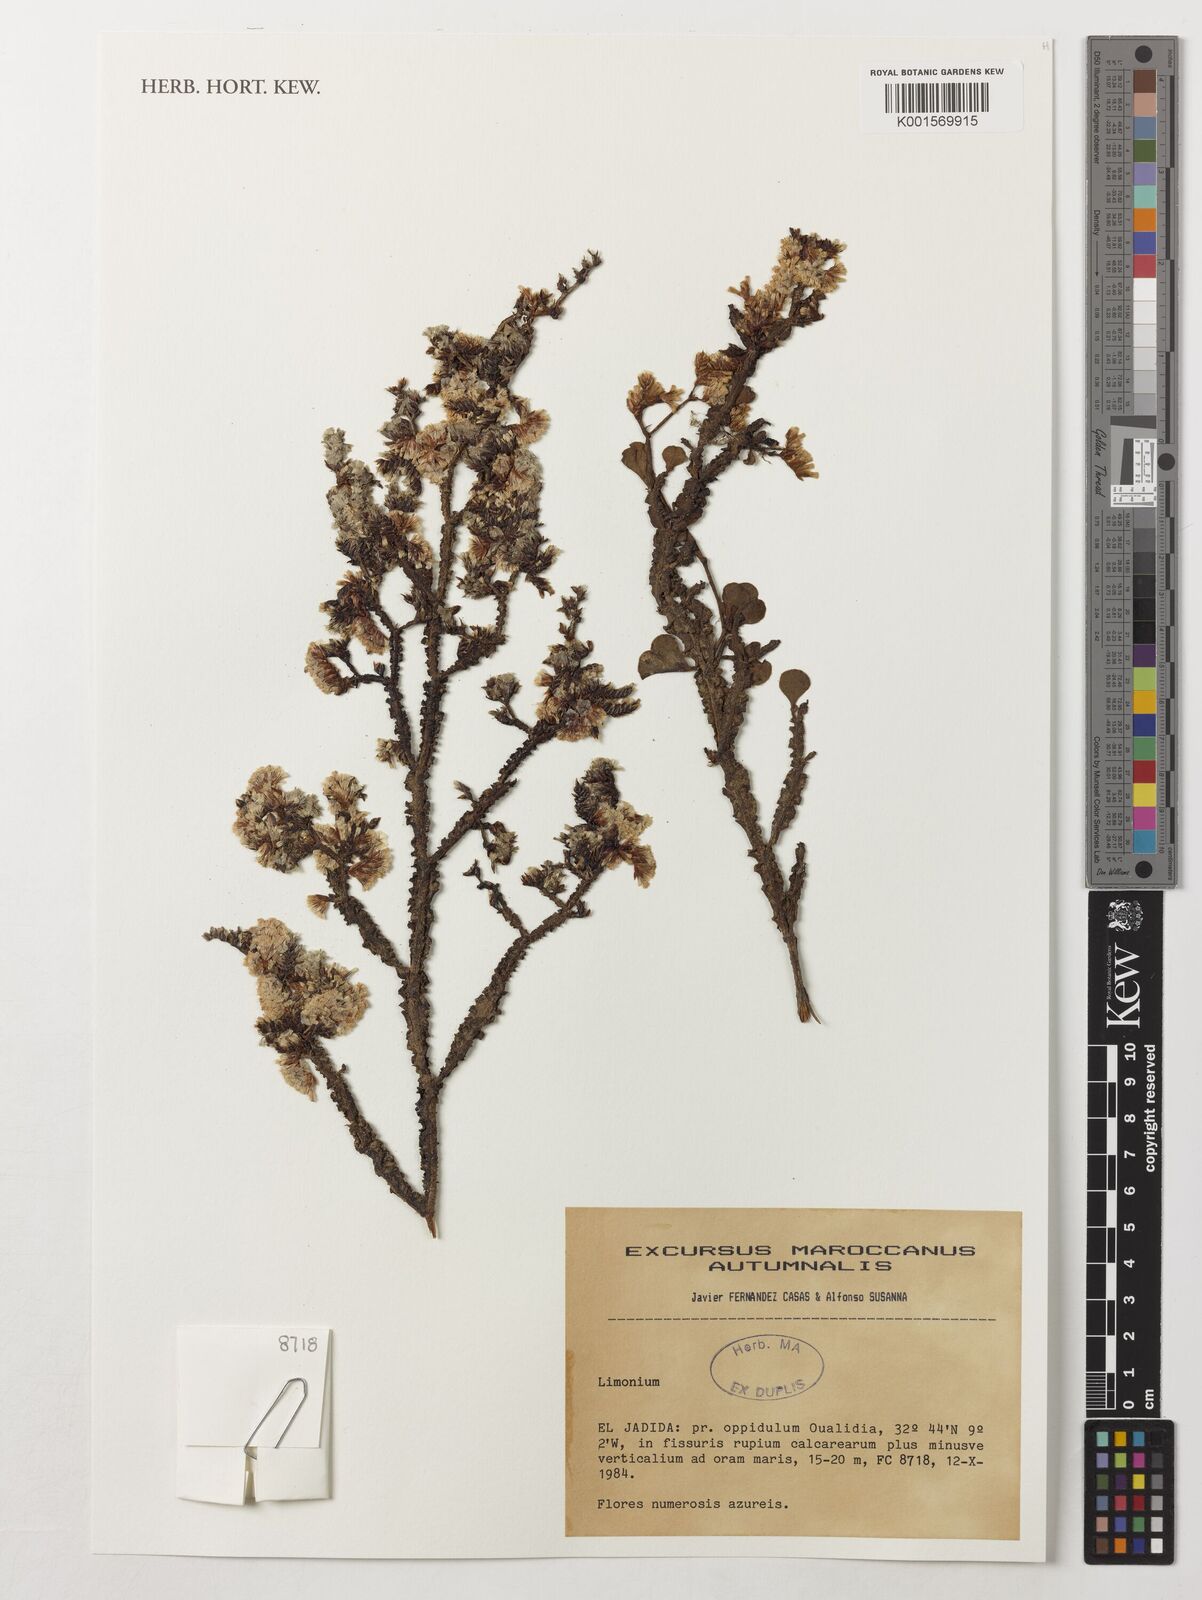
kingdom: Plantae
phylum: Tracheophyta
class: Magnoliopsida
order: Caryophyllales
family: Plumbaginaceae
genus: Limonium
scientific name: Limonium
